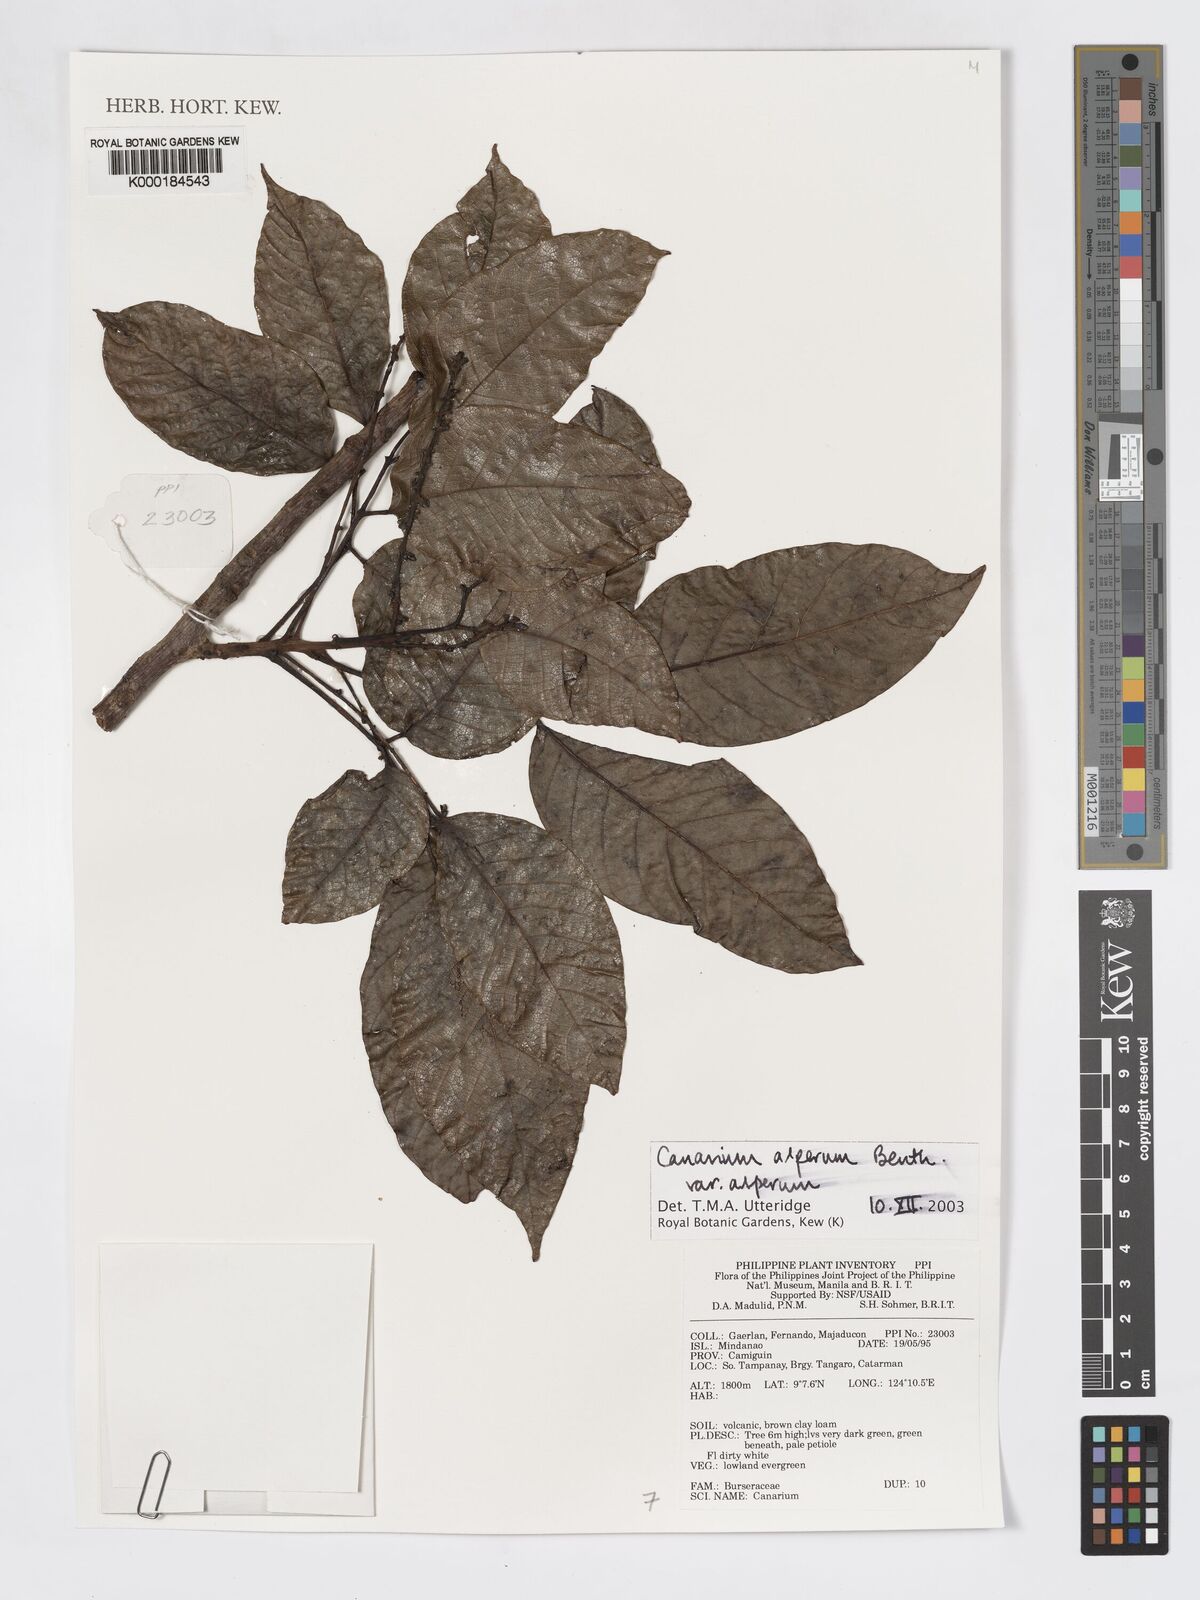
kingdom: Plantae
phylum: Tracheophyta
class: Magnoliopsida
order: Sapindales
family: Burseraceae
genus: Canarium
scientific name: Canarium asperum
